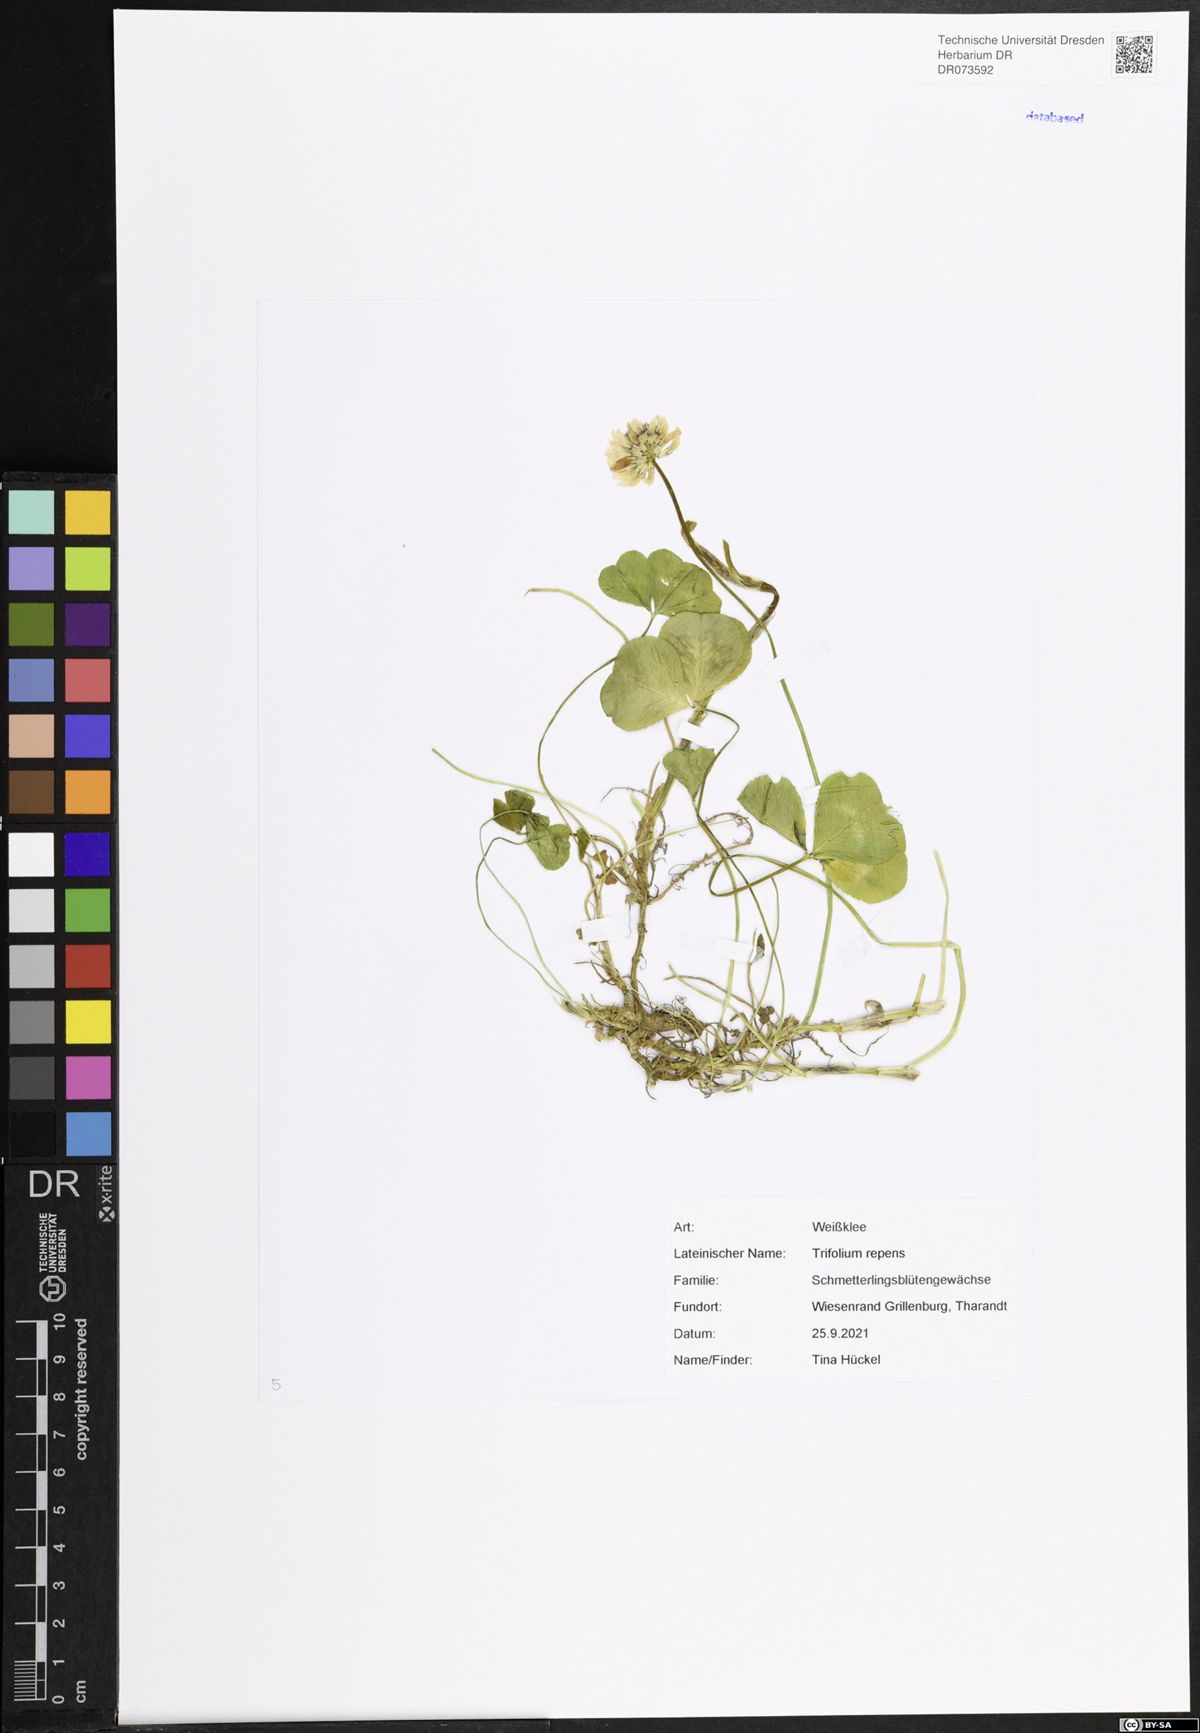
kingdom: Plantae
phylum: Tracheophyta
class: Magnoliopsida
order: Fabales
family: Fabaceae
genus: Trifolium
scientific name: Trifolium repens
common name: White clover
